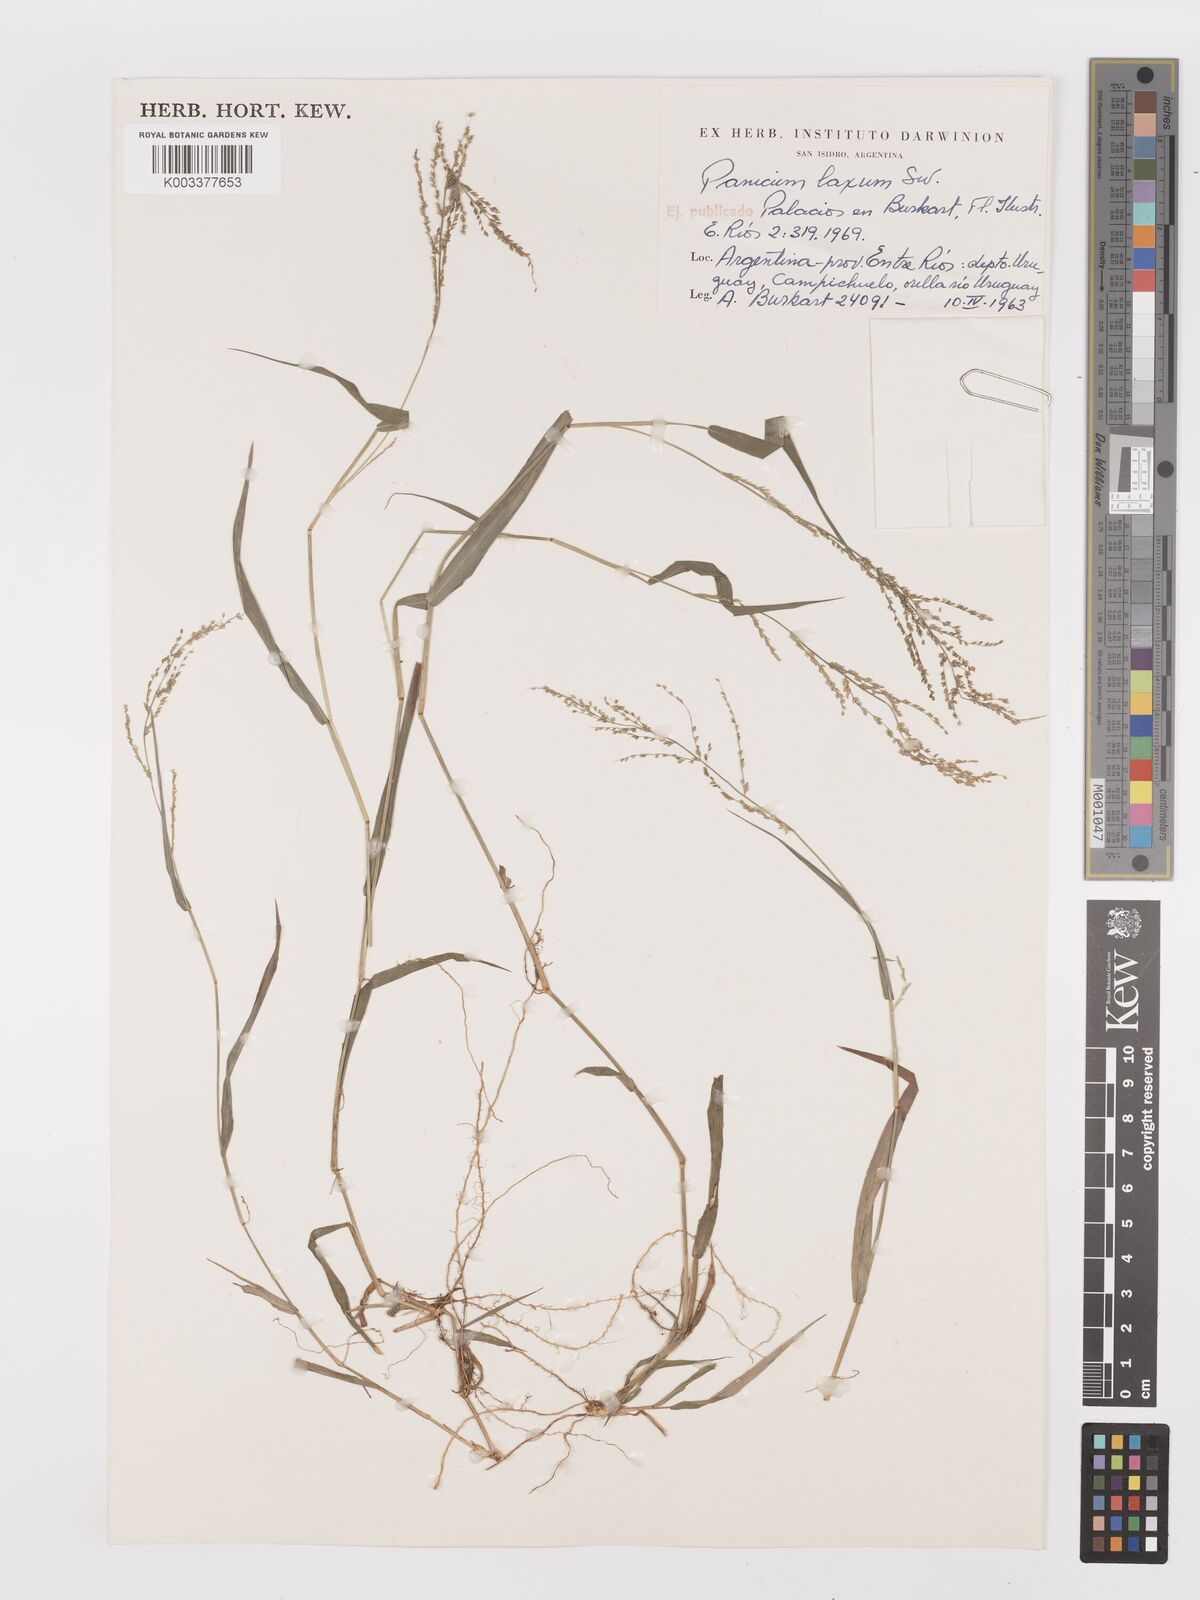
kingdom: Plantae
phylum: Tracheophyta
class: Liliopsida
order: Poales
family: Poaceae
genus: Steinchisma
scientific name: Steinchisma laxum
